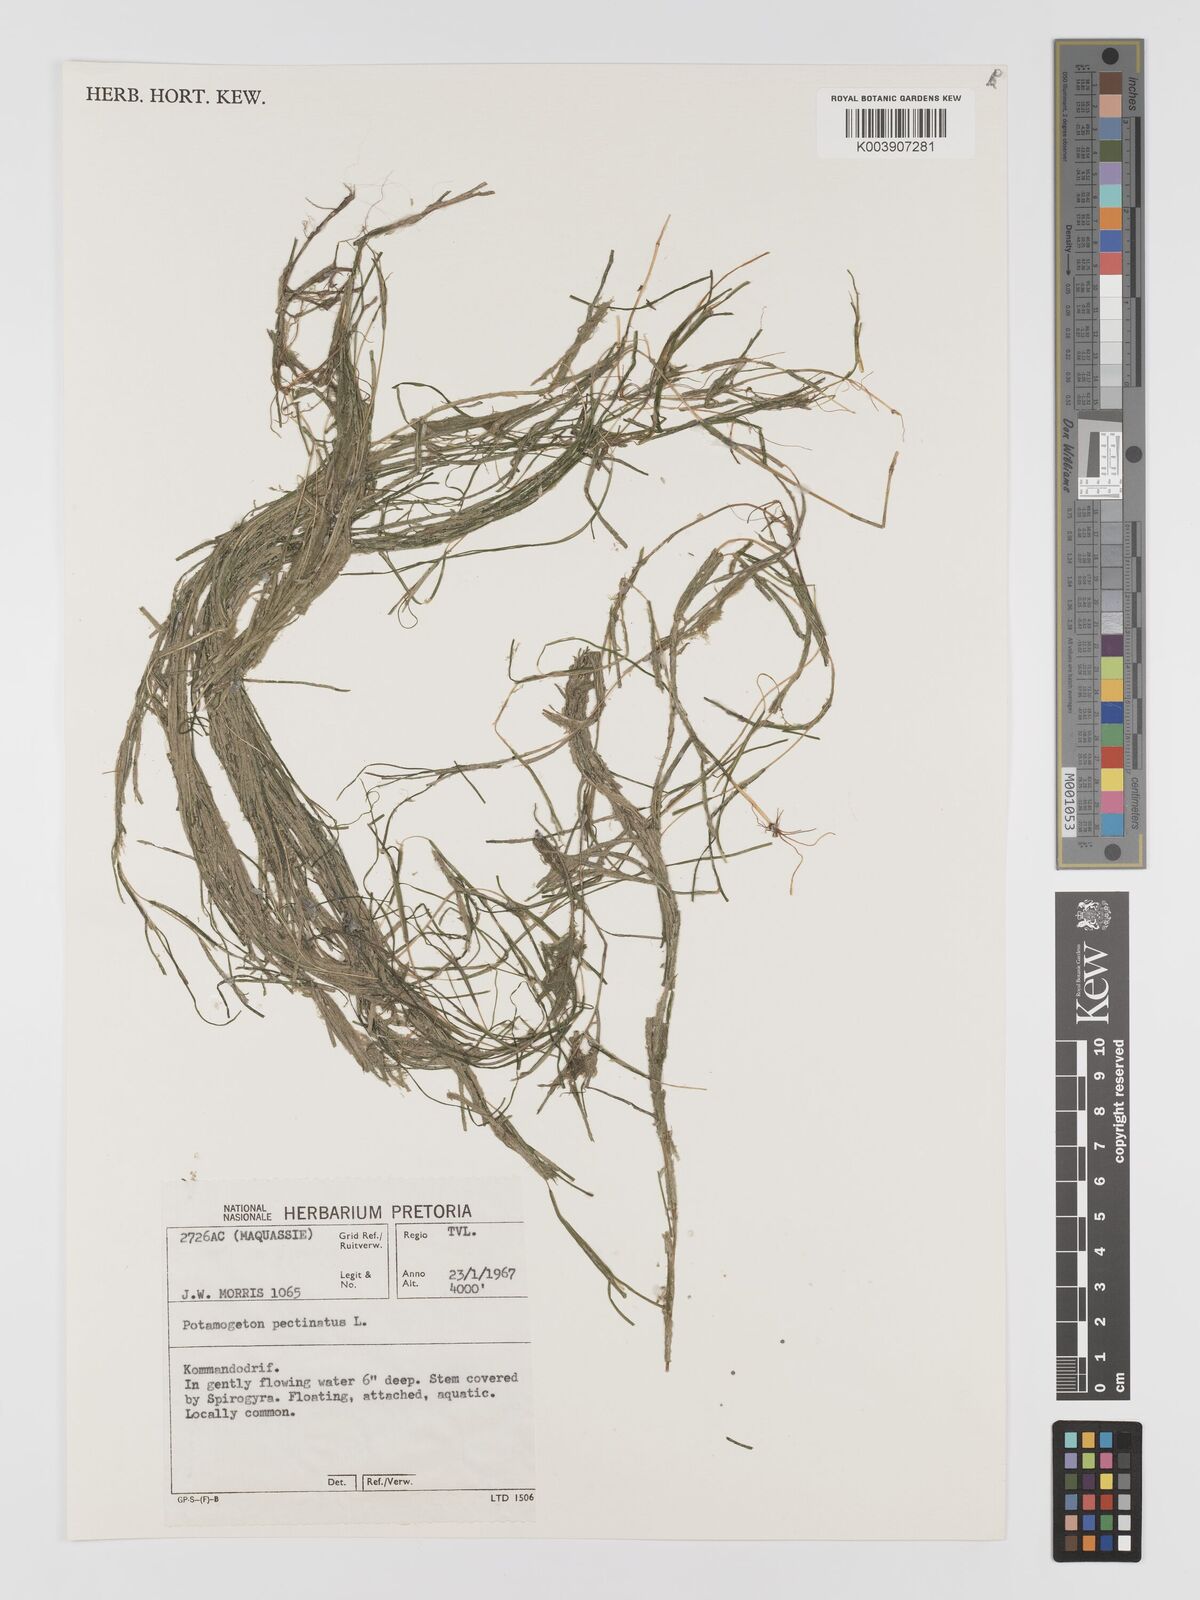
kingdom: Plantae
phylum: Tracheophyta
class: Liliopsida
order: Alismatales
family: Potamogetonaceae
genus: Stuckenia
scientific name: Stuckenia pectinata
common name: Sago pondweed
